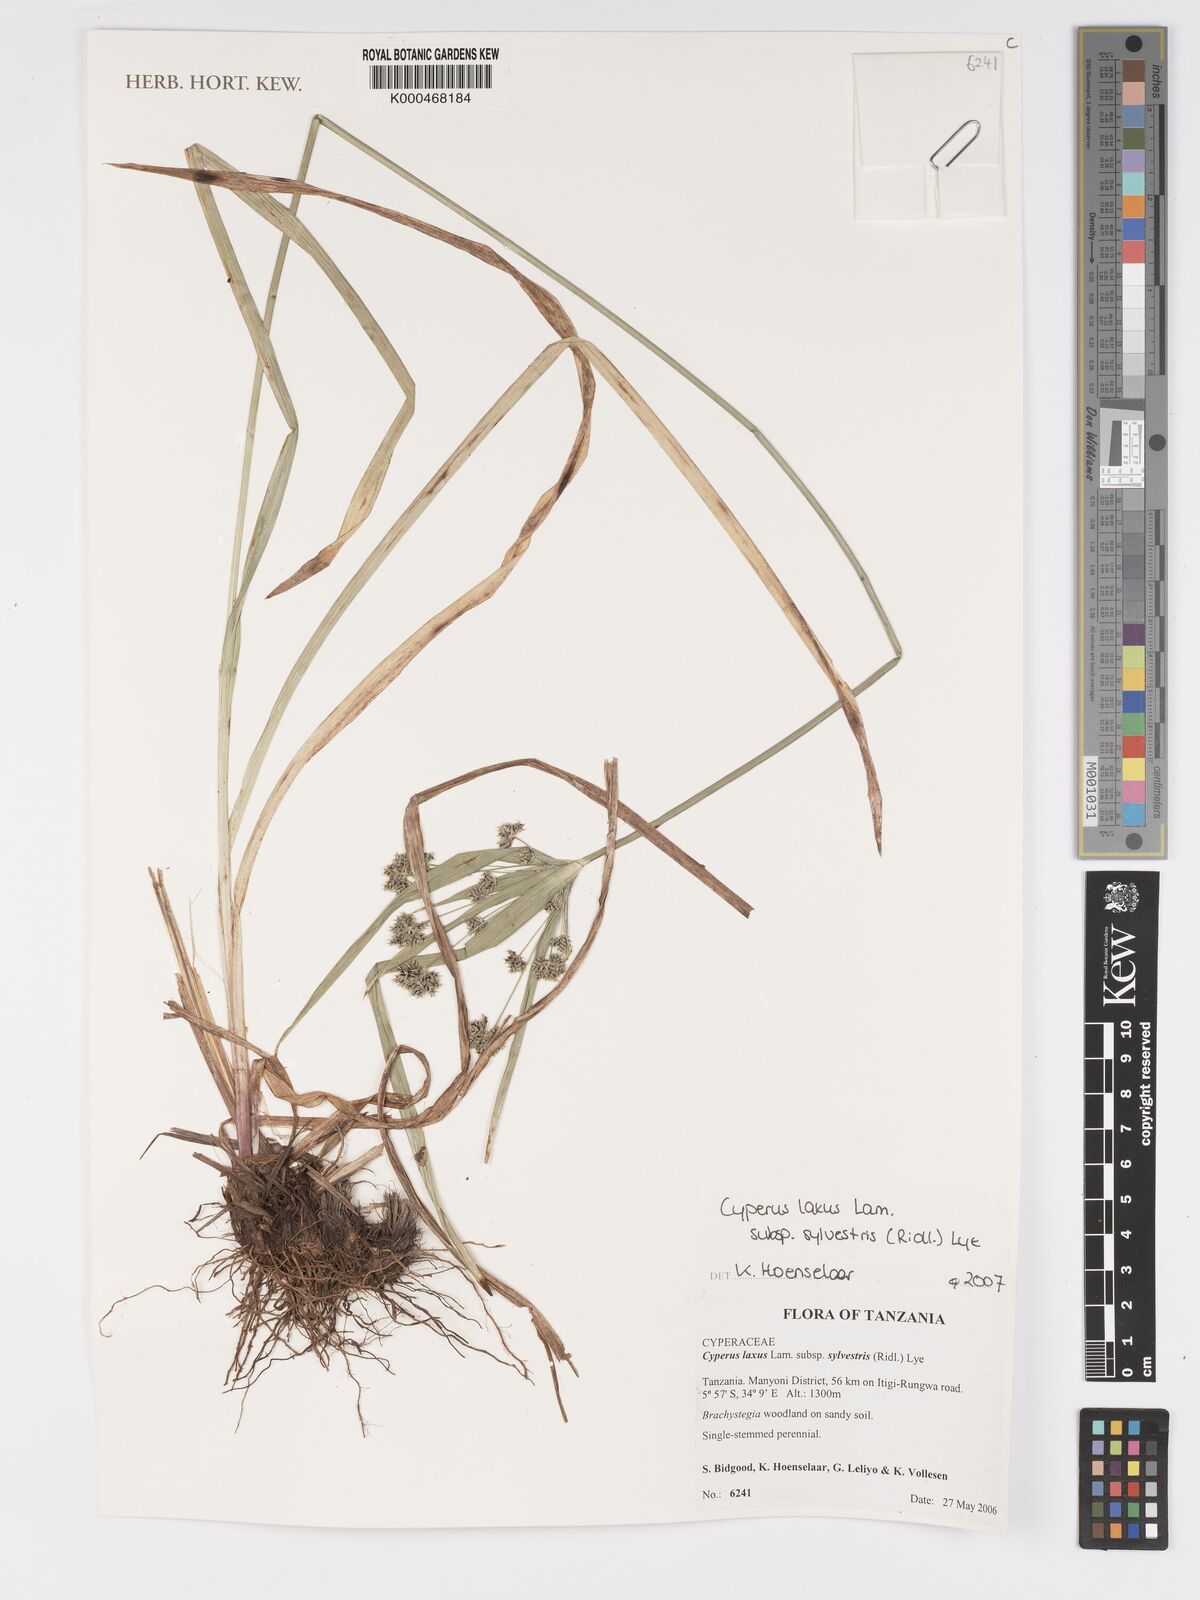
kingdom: Plantae
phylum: Tracheophyta
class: Liliopsida
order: Poales
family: Cyperaceae
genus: Cyperus
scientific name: Cyperus sylvestris
